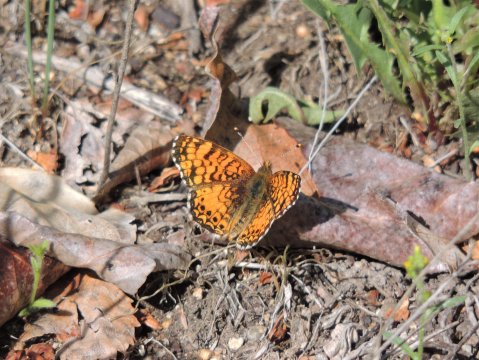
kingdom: Animalia
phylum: Arthropoda
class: Insecta
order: Lepidoptera
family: Nymphalidae
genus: Eresia
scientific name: Eresia aveyrona
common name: Mylitta Crescent
